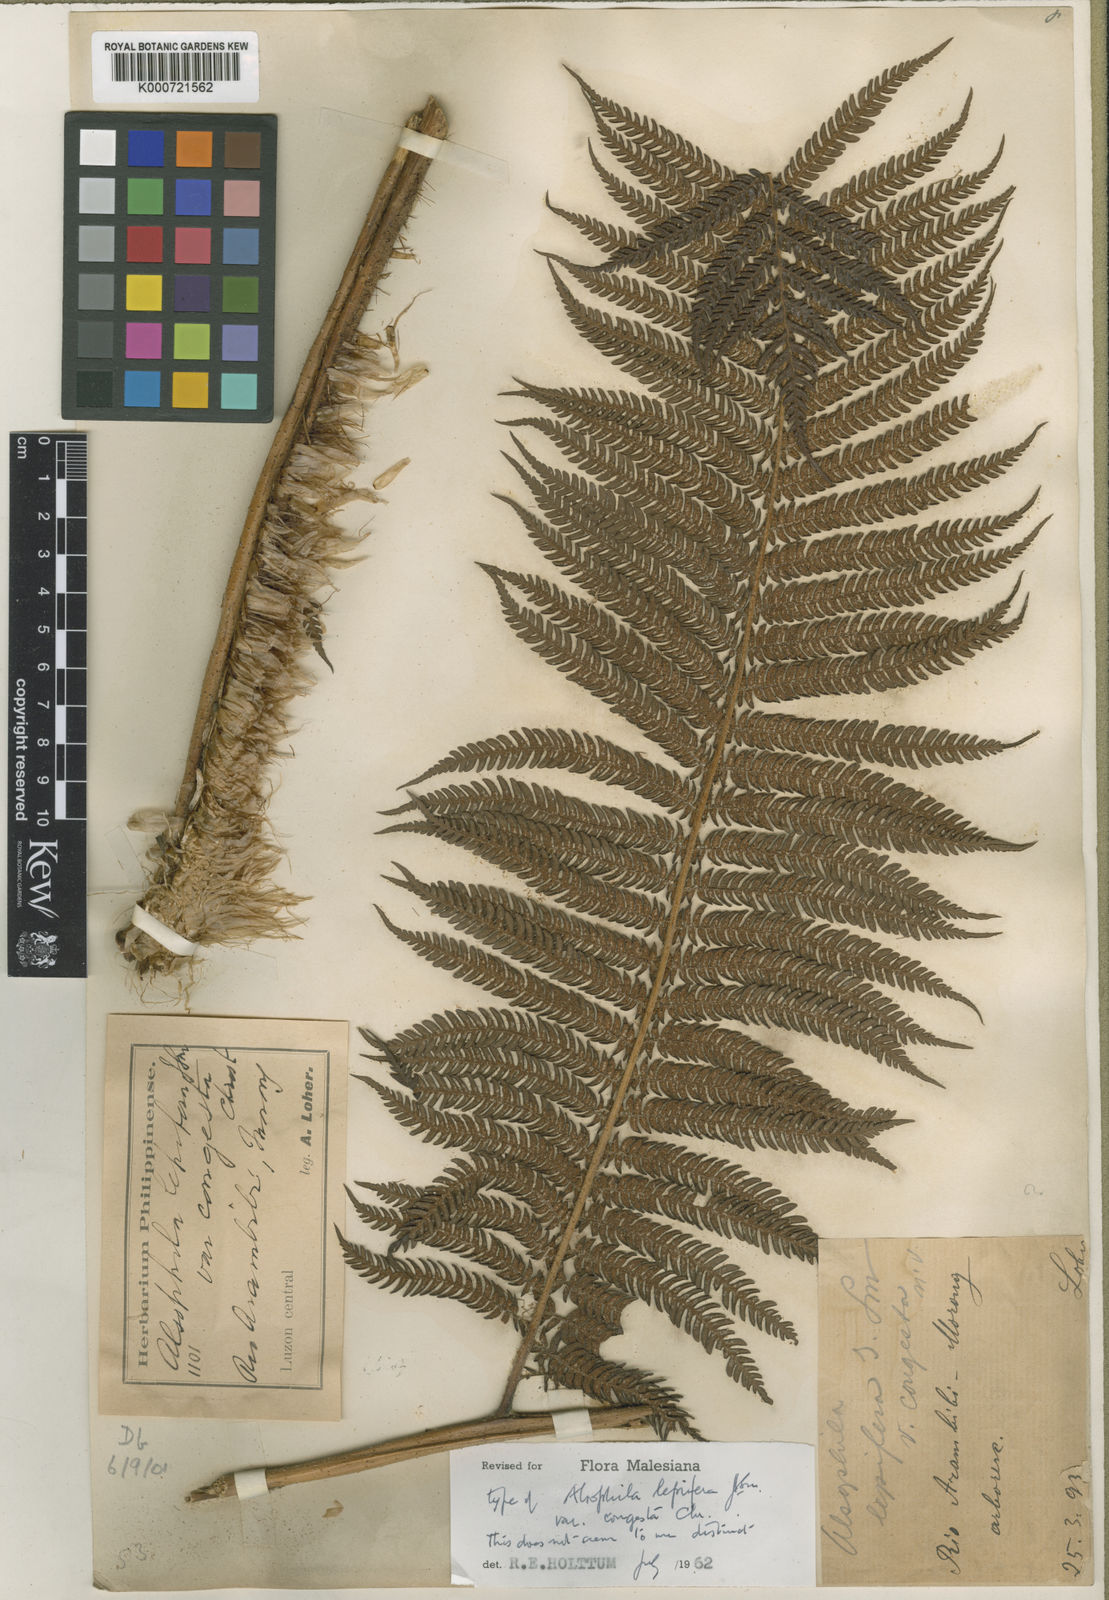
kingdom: Plantae
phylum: Tracheophyta
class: Polypodiopsida
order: Cyatheales
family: Cyatheaceae
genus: Alsophila
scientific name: Alsophila lepifera
